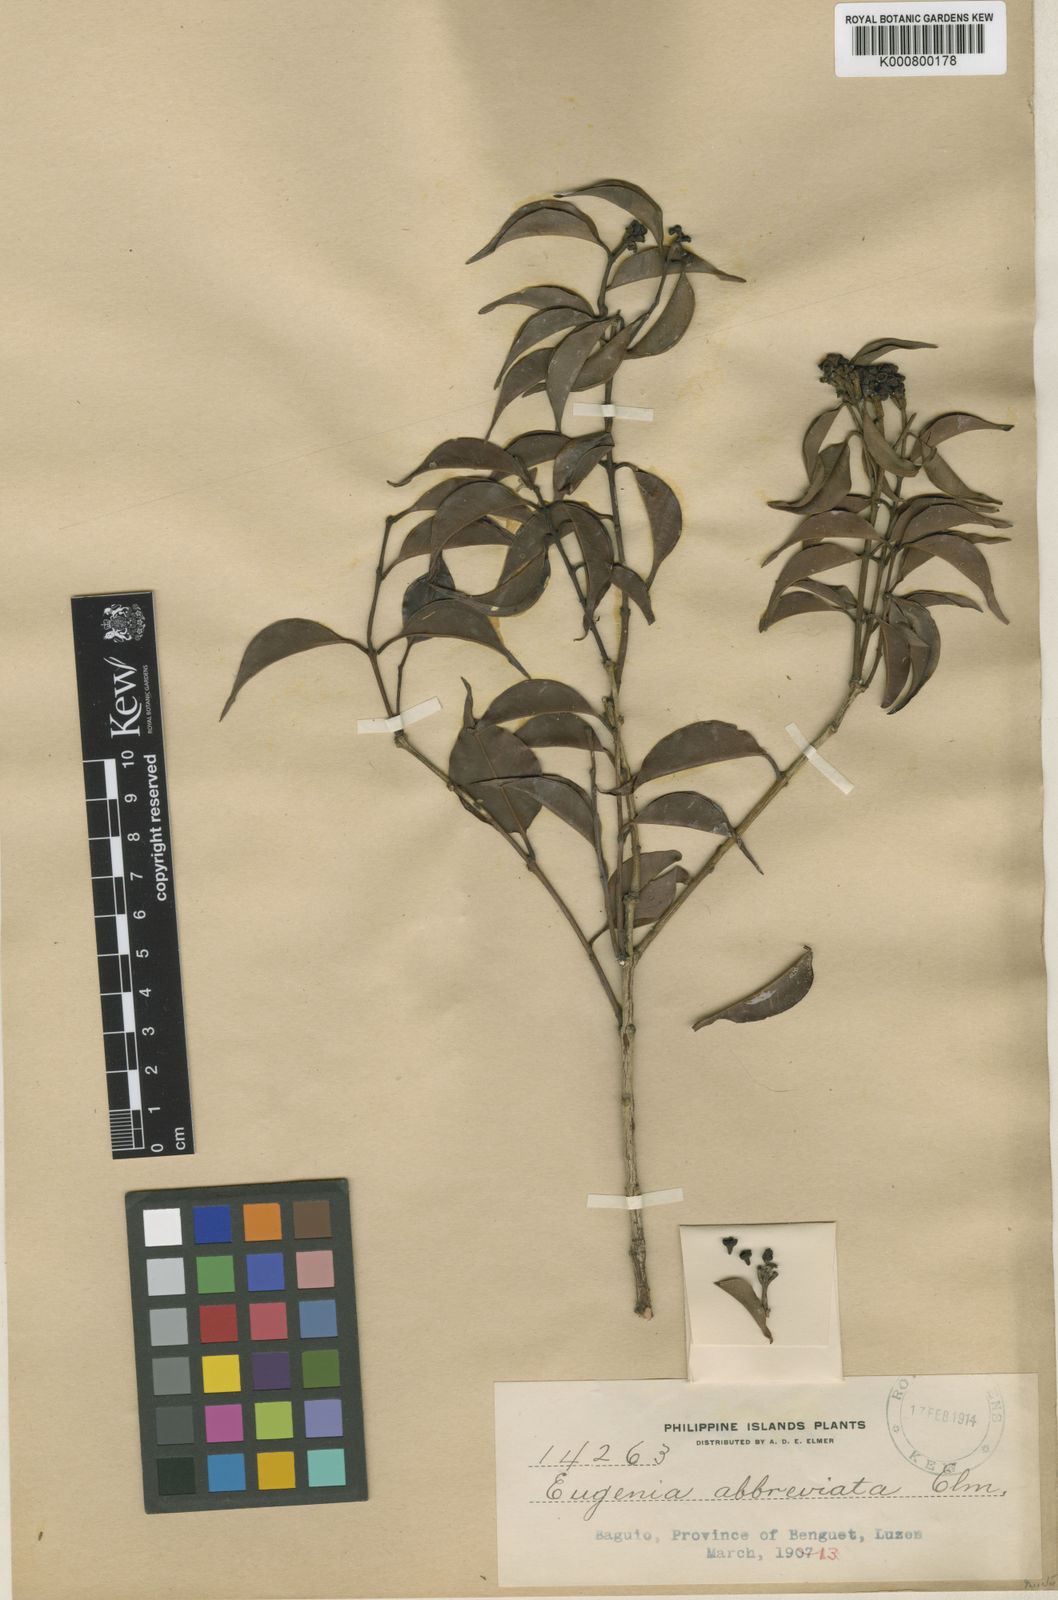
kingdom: Plantae
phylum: Tracheophyta
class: Magnoliopsida
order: Myrtales
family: Myrtaceae
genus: Syzygium
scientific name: Syzygium abbreviatum
